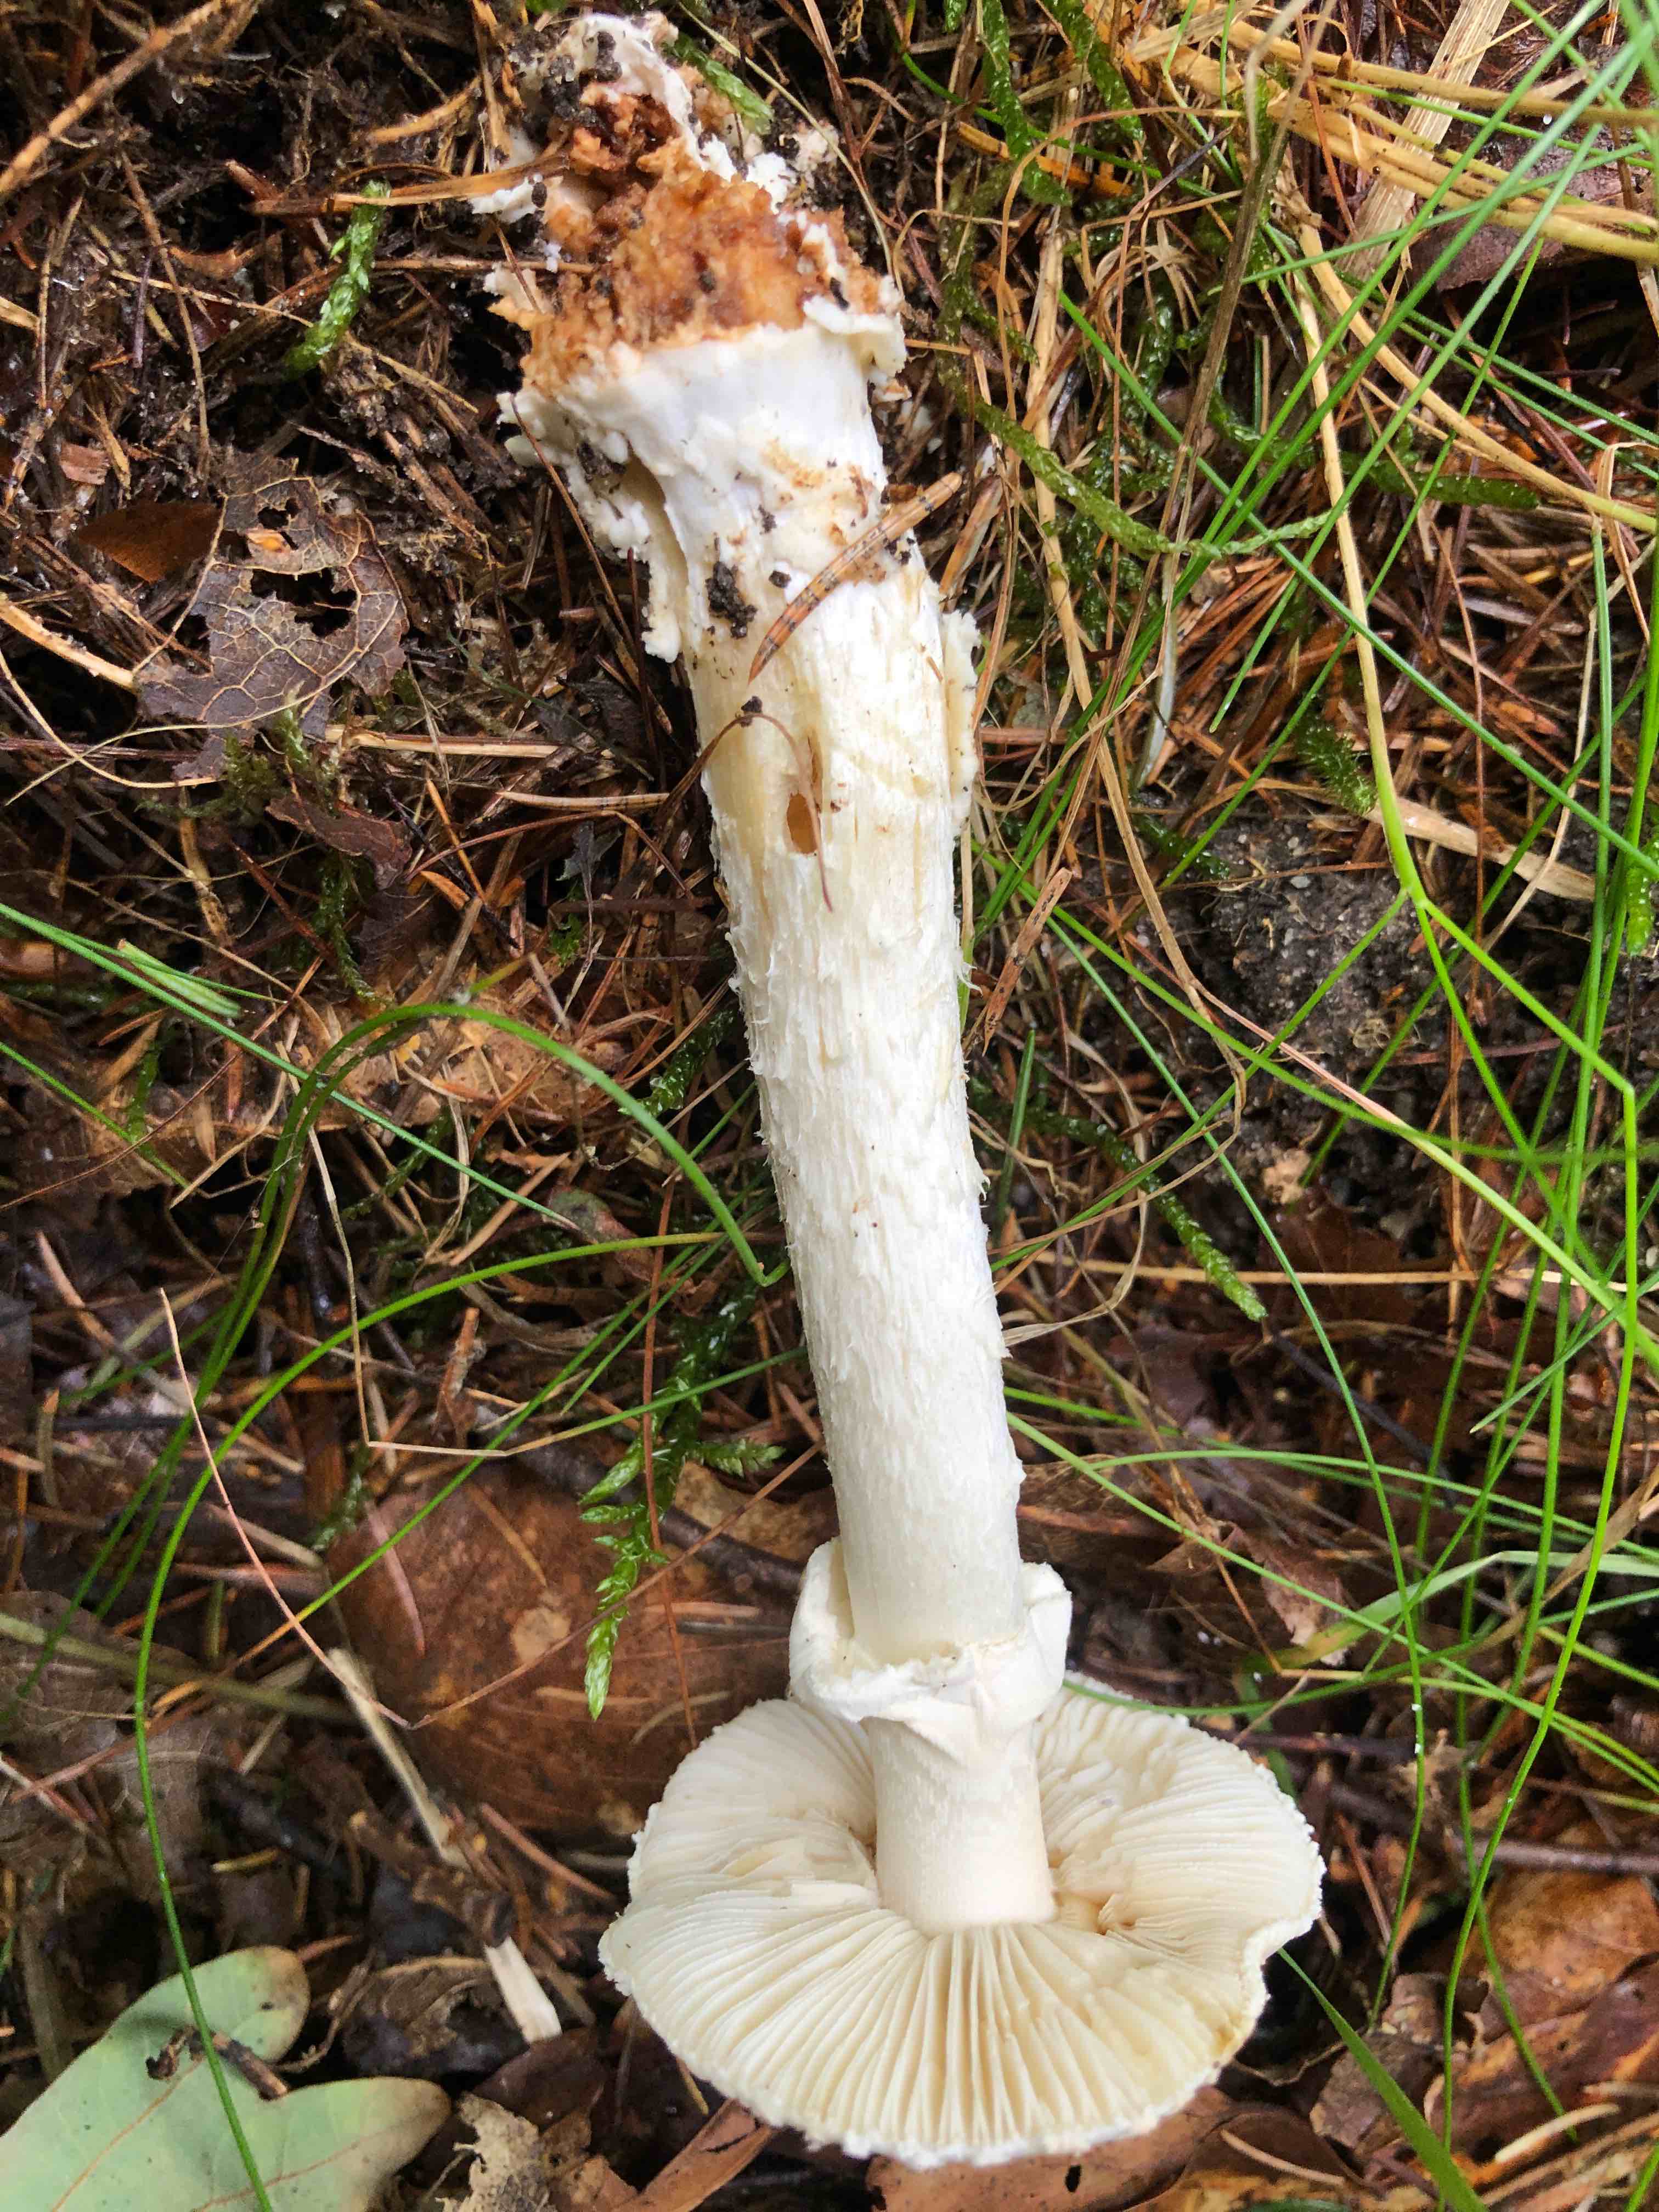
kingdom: Fungi
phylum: Basidiomycota
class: Agaricomycetes
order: Agaricales
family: Amanitaceae
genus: Amanita
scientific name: Amanita citrina
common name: False death-cap
